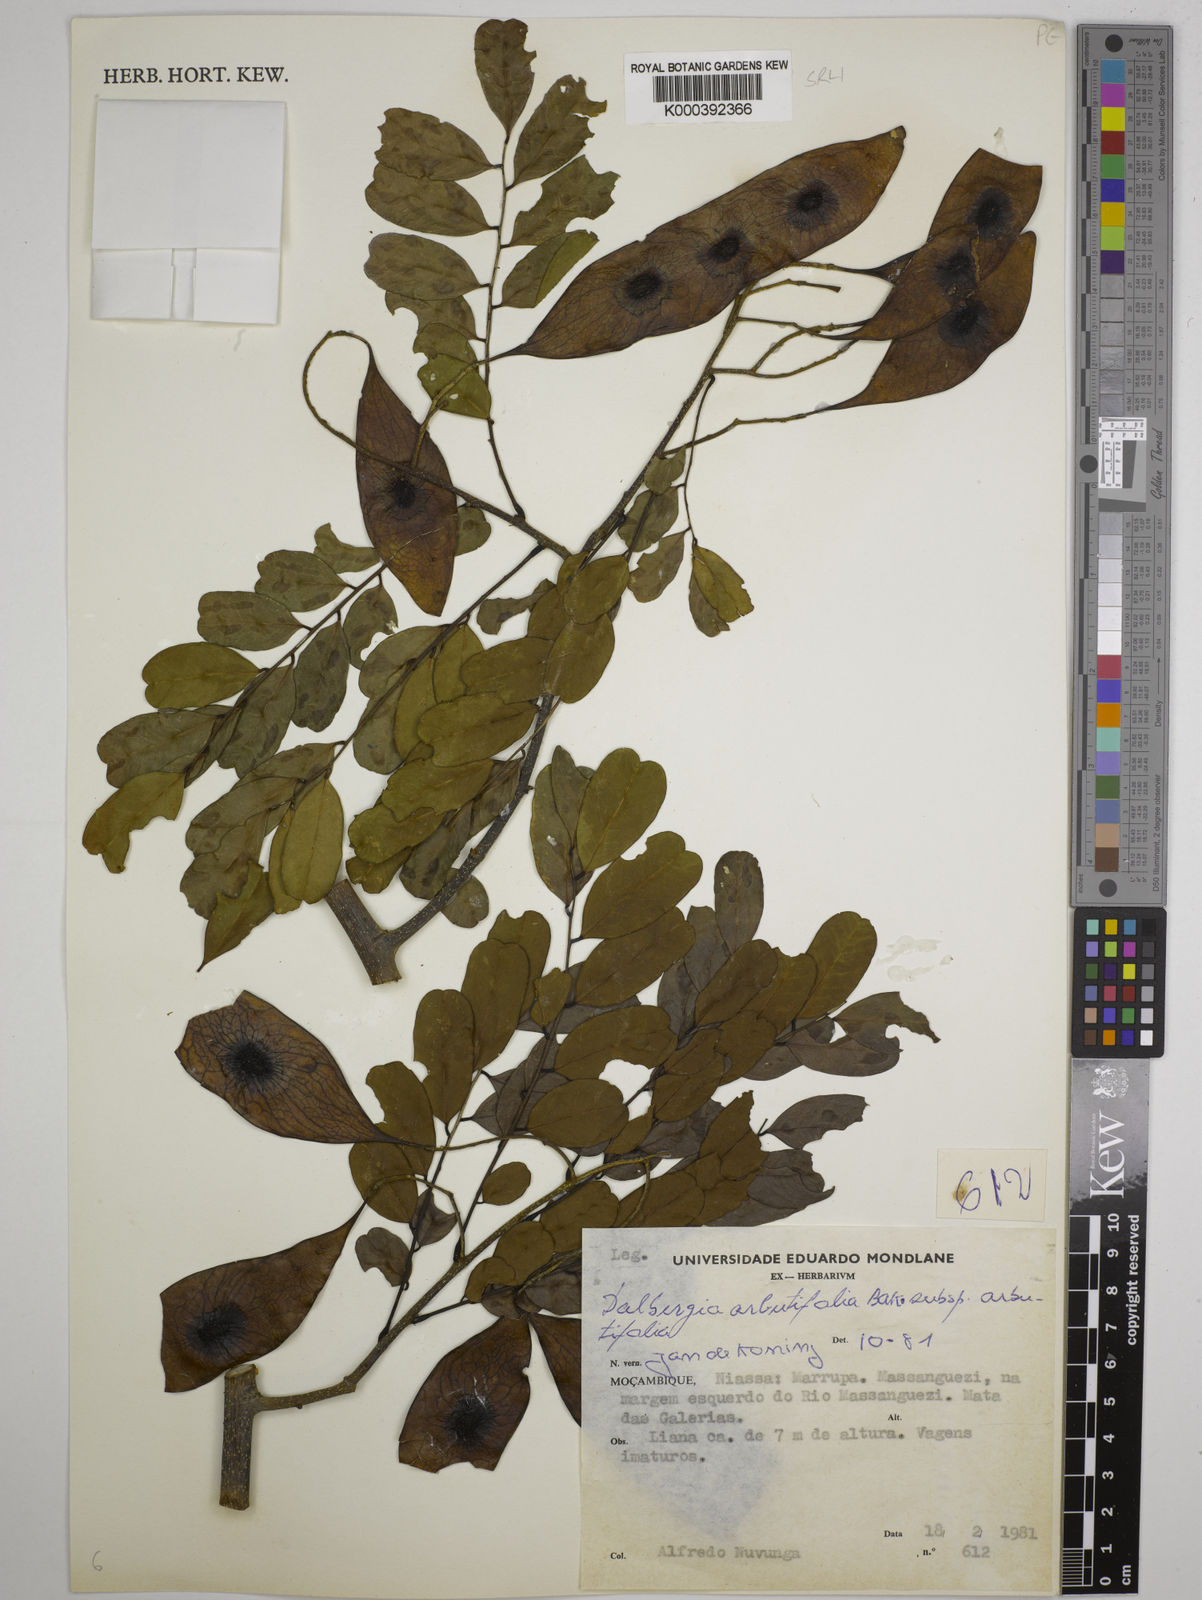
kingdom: Plantae
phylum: Tracheophyta
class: Magnoliopsida
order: Fabales
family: Fabaceae
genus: Dalbergia
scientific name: Dalbergia arbutifolia
